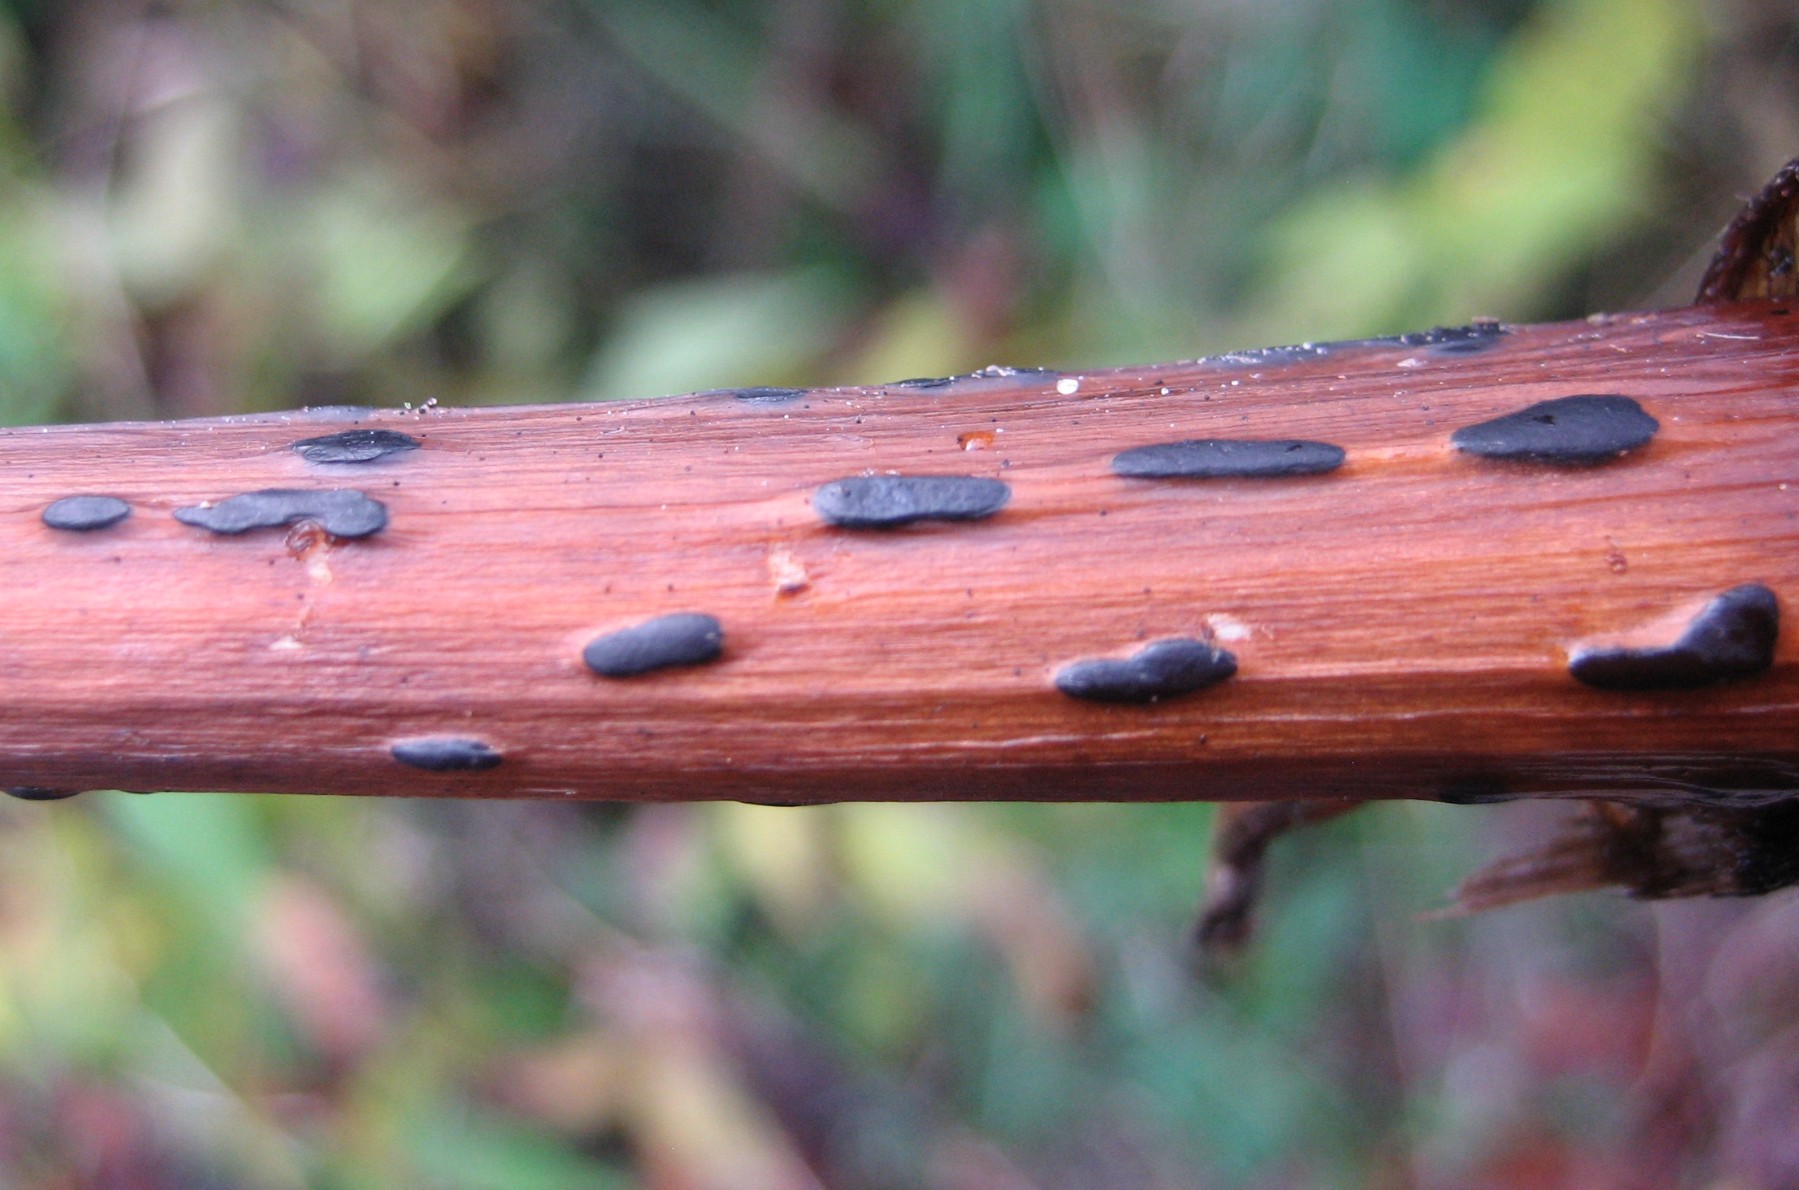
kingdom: Fungi
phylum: Basidiomycota
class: Agaricomycetes
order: Agaricales
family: Typhulaceae
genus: Sclerotium
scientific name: Sclerotium
